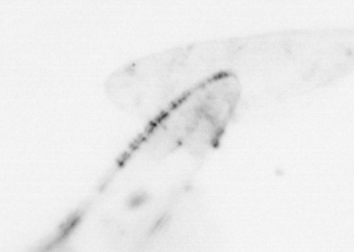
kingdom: Animalia
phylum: Chaetognatha
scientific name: Chaetognatha
